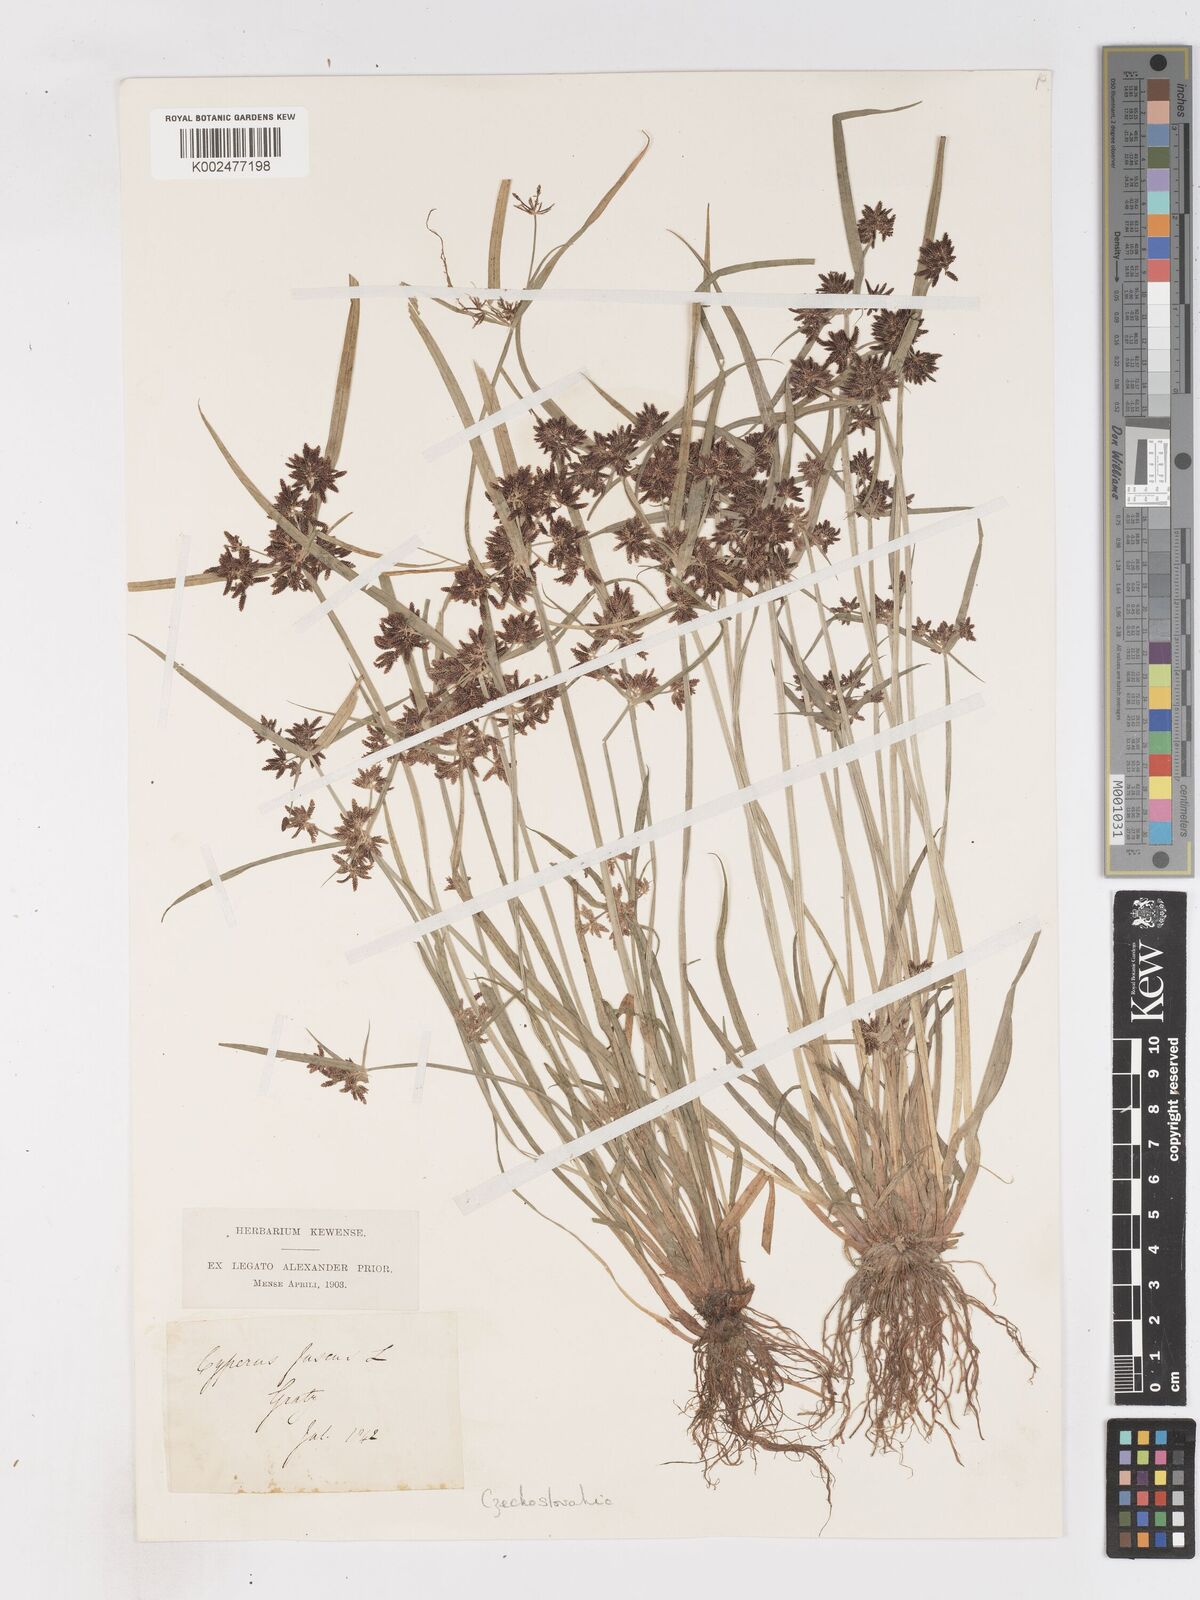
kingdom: Plantae
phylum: Tracheophyta
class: Liliopsida
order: Poales
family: Cyperaceae
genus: Cyperus
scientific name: Cyperus fuscus
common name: Brown galingale
